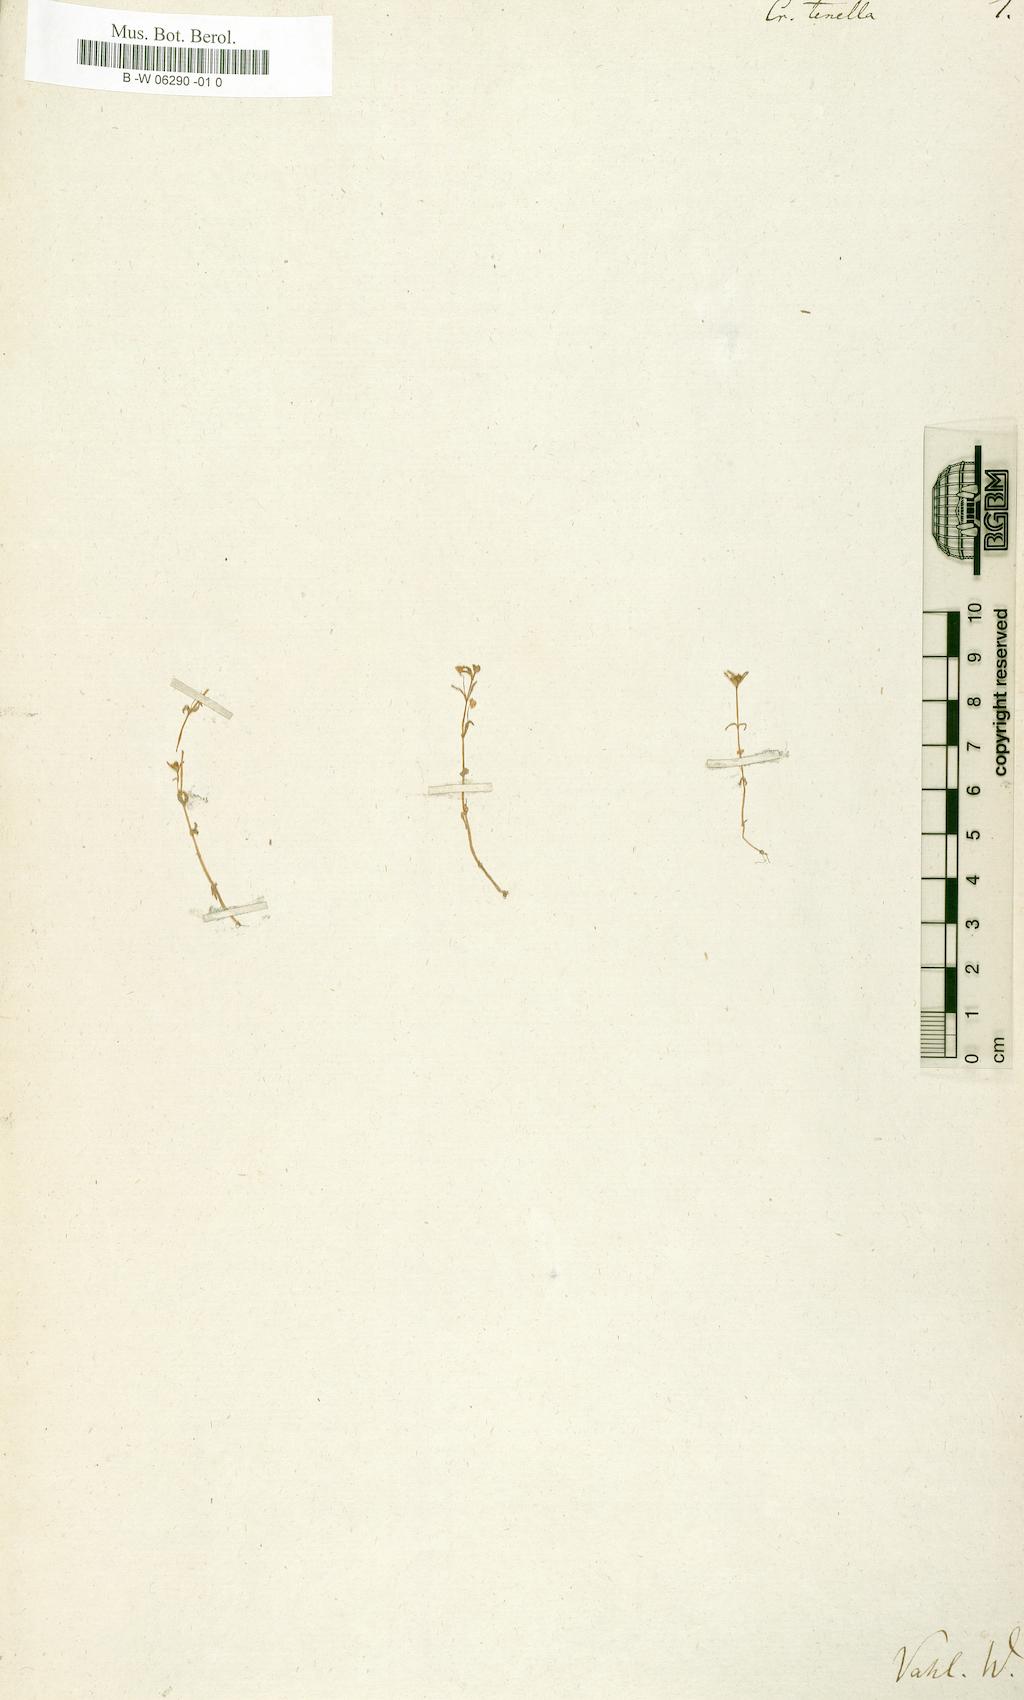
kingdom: Plantae
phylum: Tracheophyta
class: Magnoliopsida
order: Saxifragales
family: Crassulaceae
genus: Crassula
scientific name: Crassula tenera
